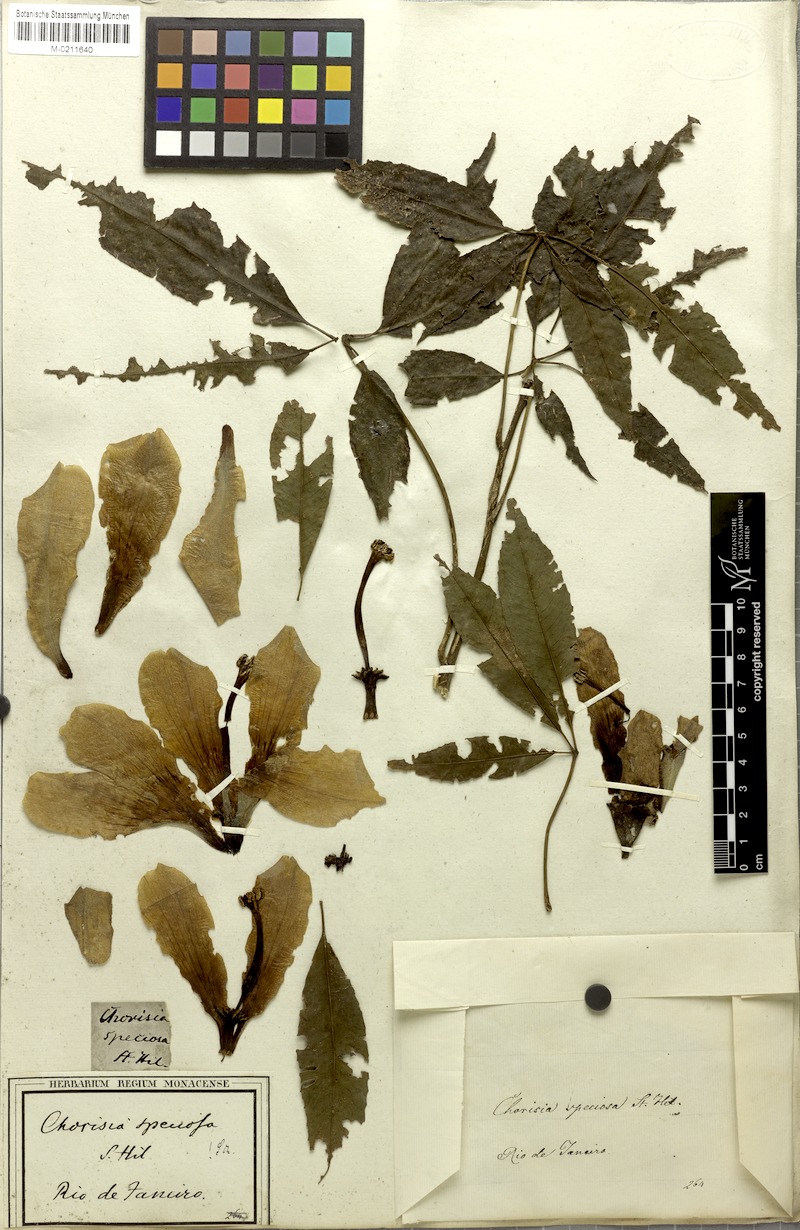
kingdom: Plantae
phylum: Tracheophyta
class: Magnoliopsida
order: Malvales
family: Malvaceae
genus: Ceiba
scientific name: Ceiba speciosa
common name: Silk-floss tree
